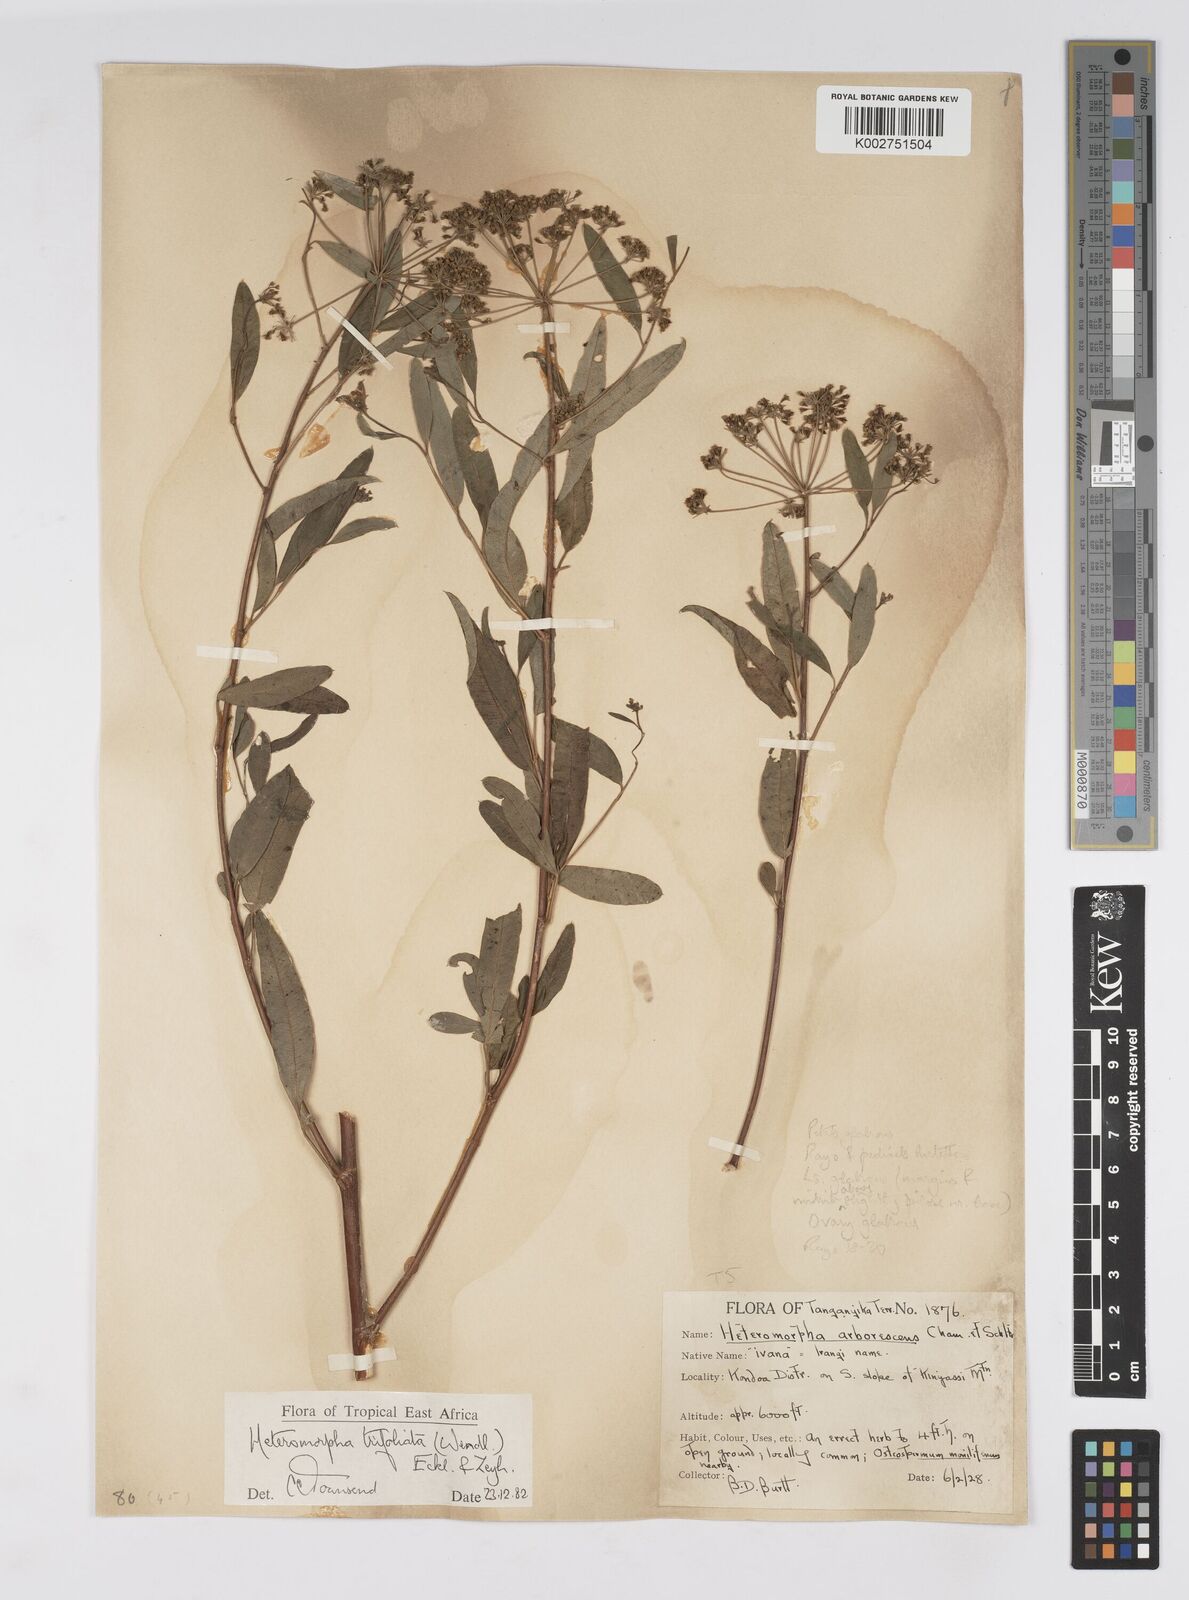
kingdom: Plantae
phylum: Tracheophyta
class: Magnoliopsida
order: Apiales
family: Apiaceae
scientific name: Apiaceae
